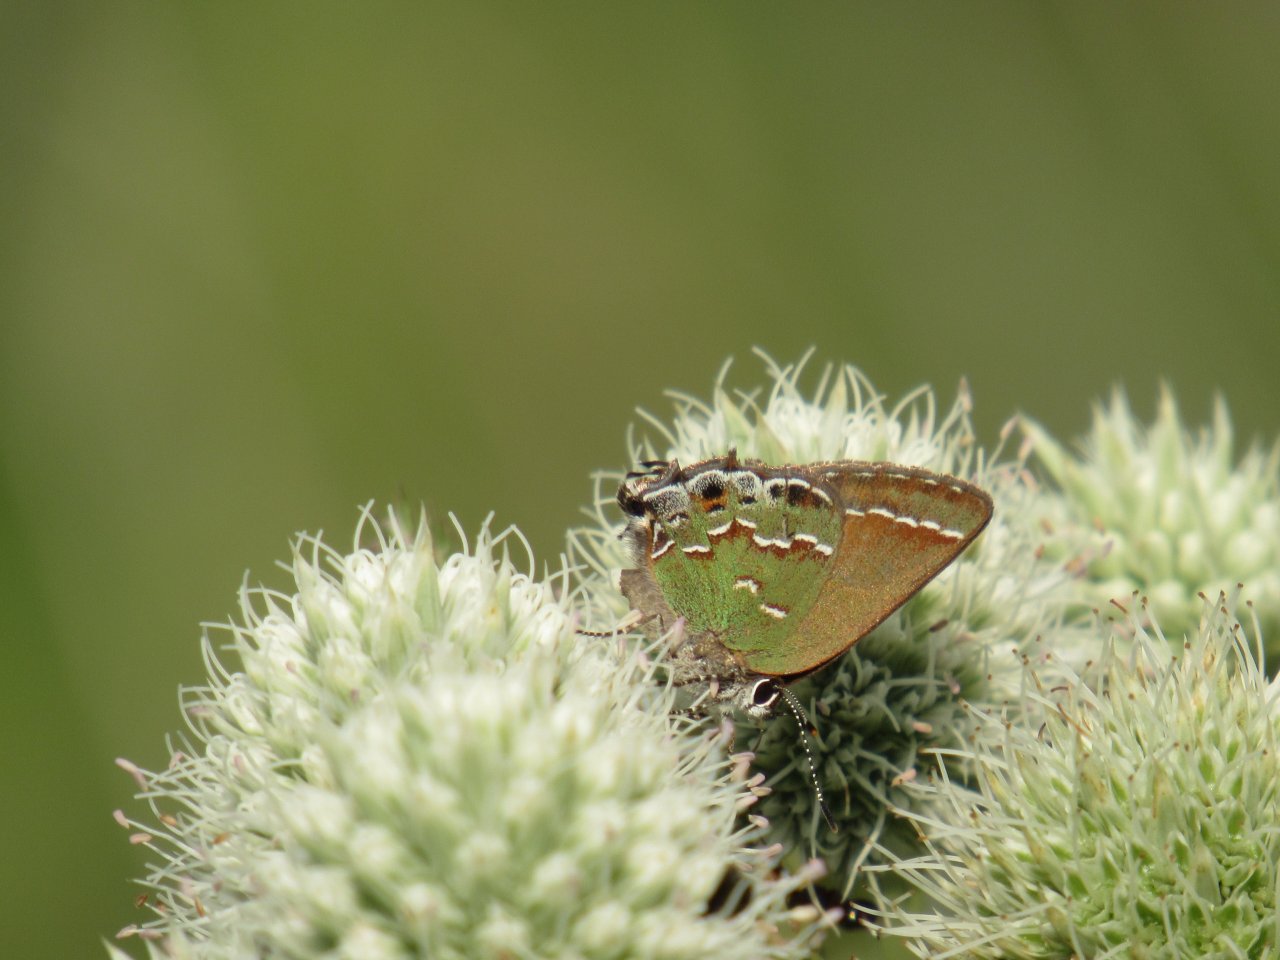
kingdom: Animalia
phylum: Arthropoda
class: Insecta
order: Lepidoptera
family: Lycaenidae
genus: Mitoura
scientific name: Mitoura gryneus
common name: Juniper Hairstreak
